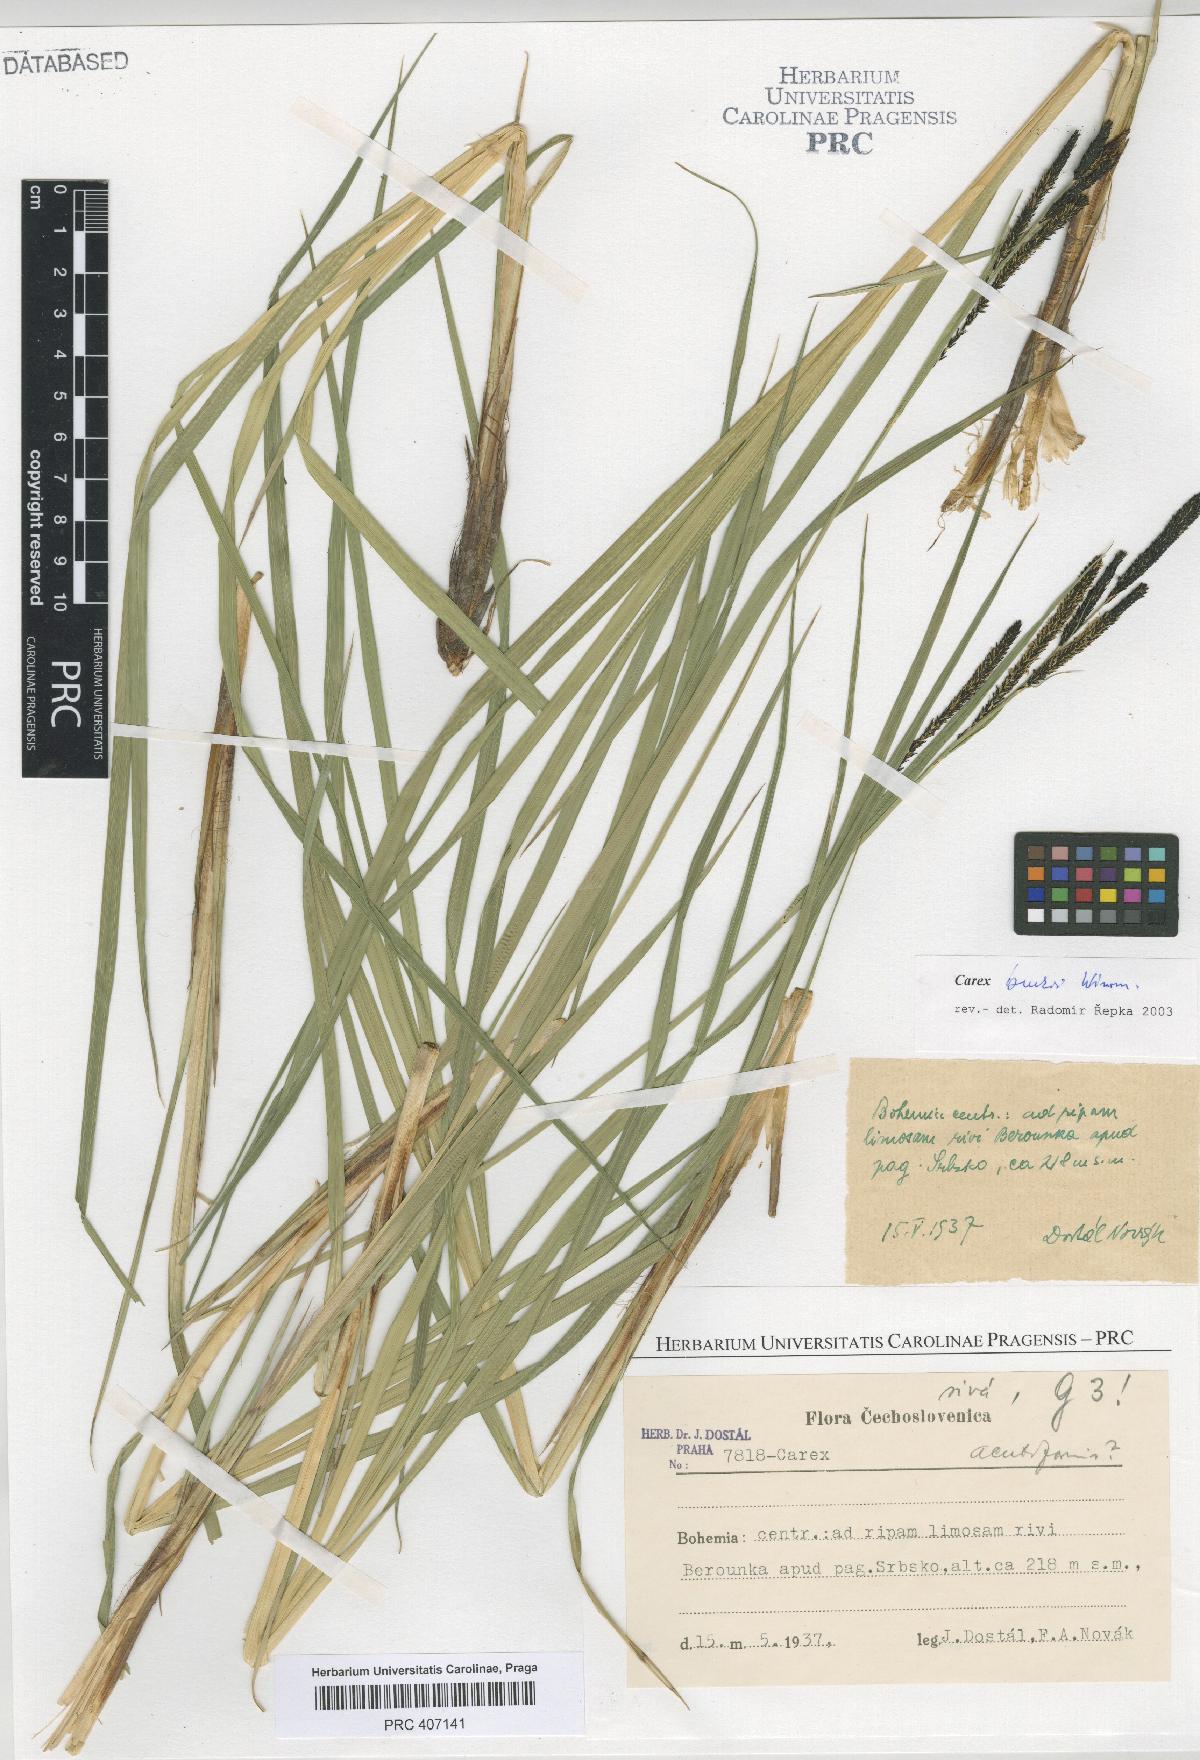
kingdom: Plantae
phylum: Tracheophyta
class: Liliopsida
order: Poales
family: Cyperaceae
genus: Carex
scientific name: Carex buekii
